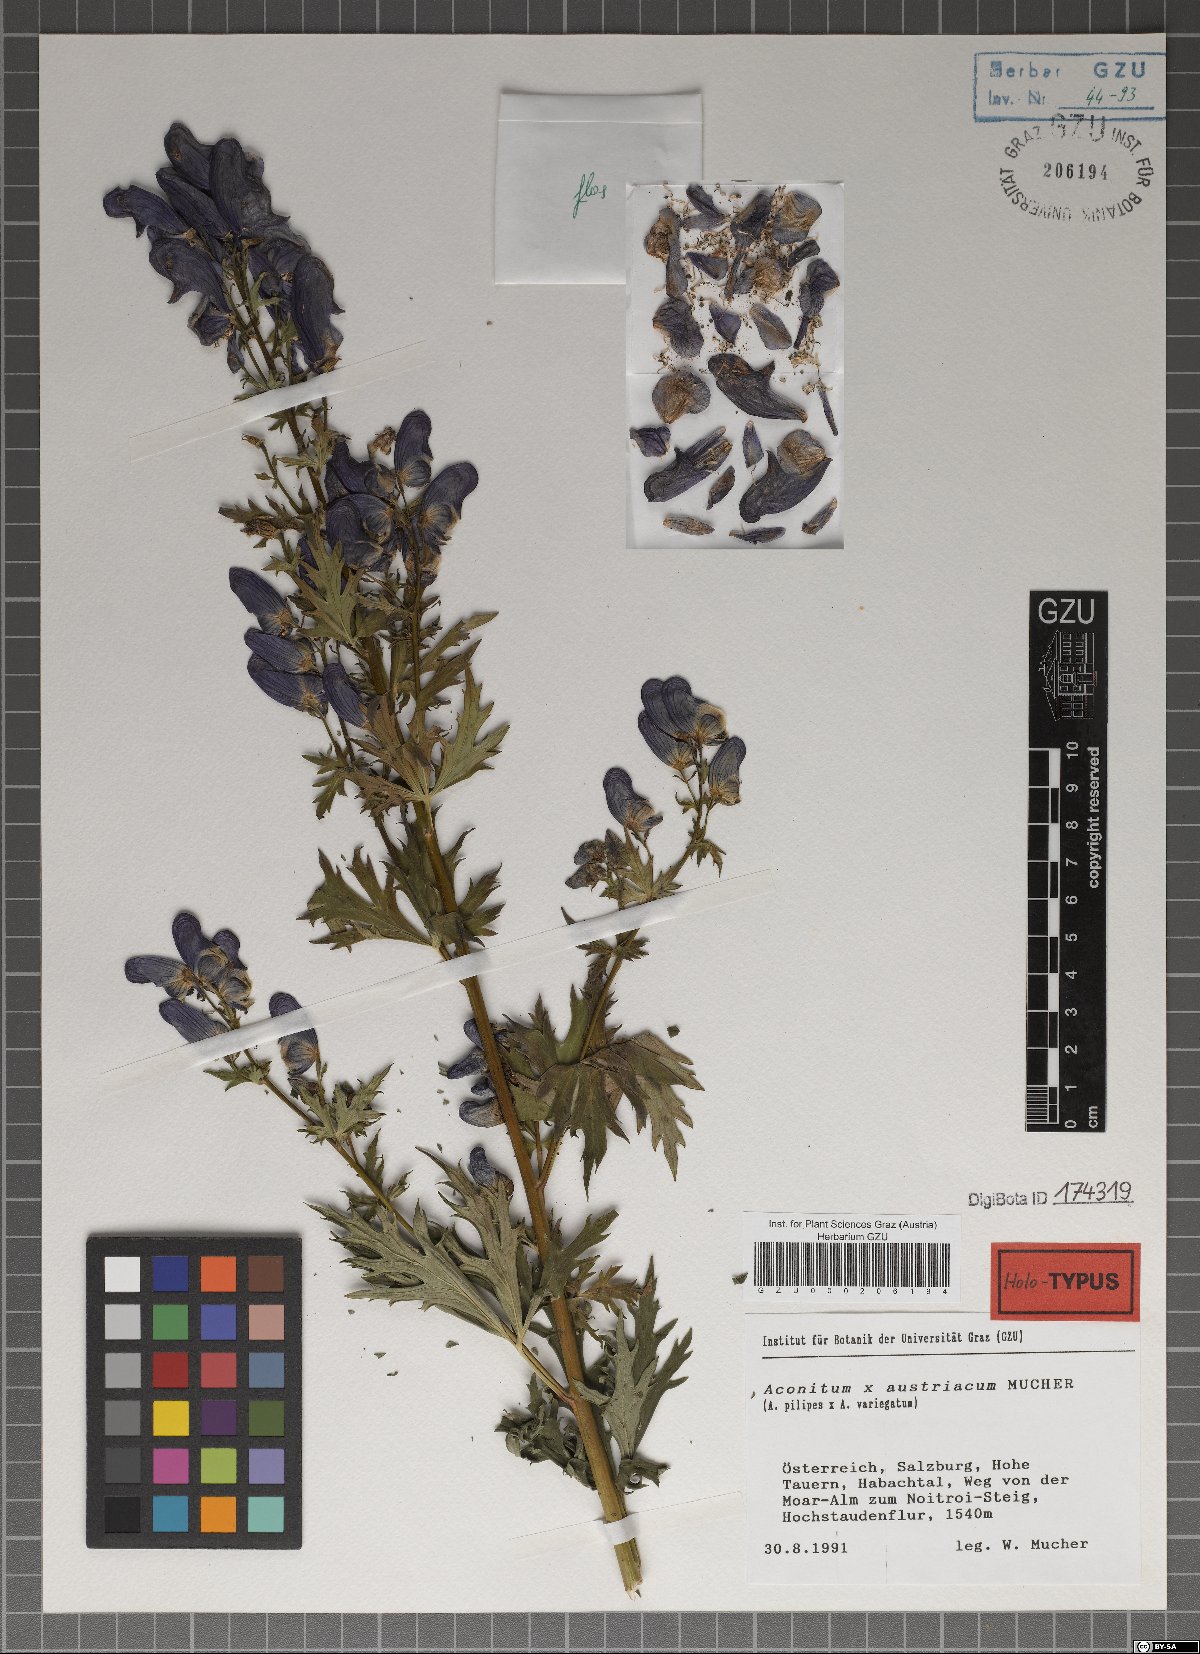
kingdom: Plantae
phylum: Tracheophyta
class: Magnoliopsida
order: Ranunculales
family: Ranunculaceae
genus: Aconitum
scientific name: Aconitum austriacum
